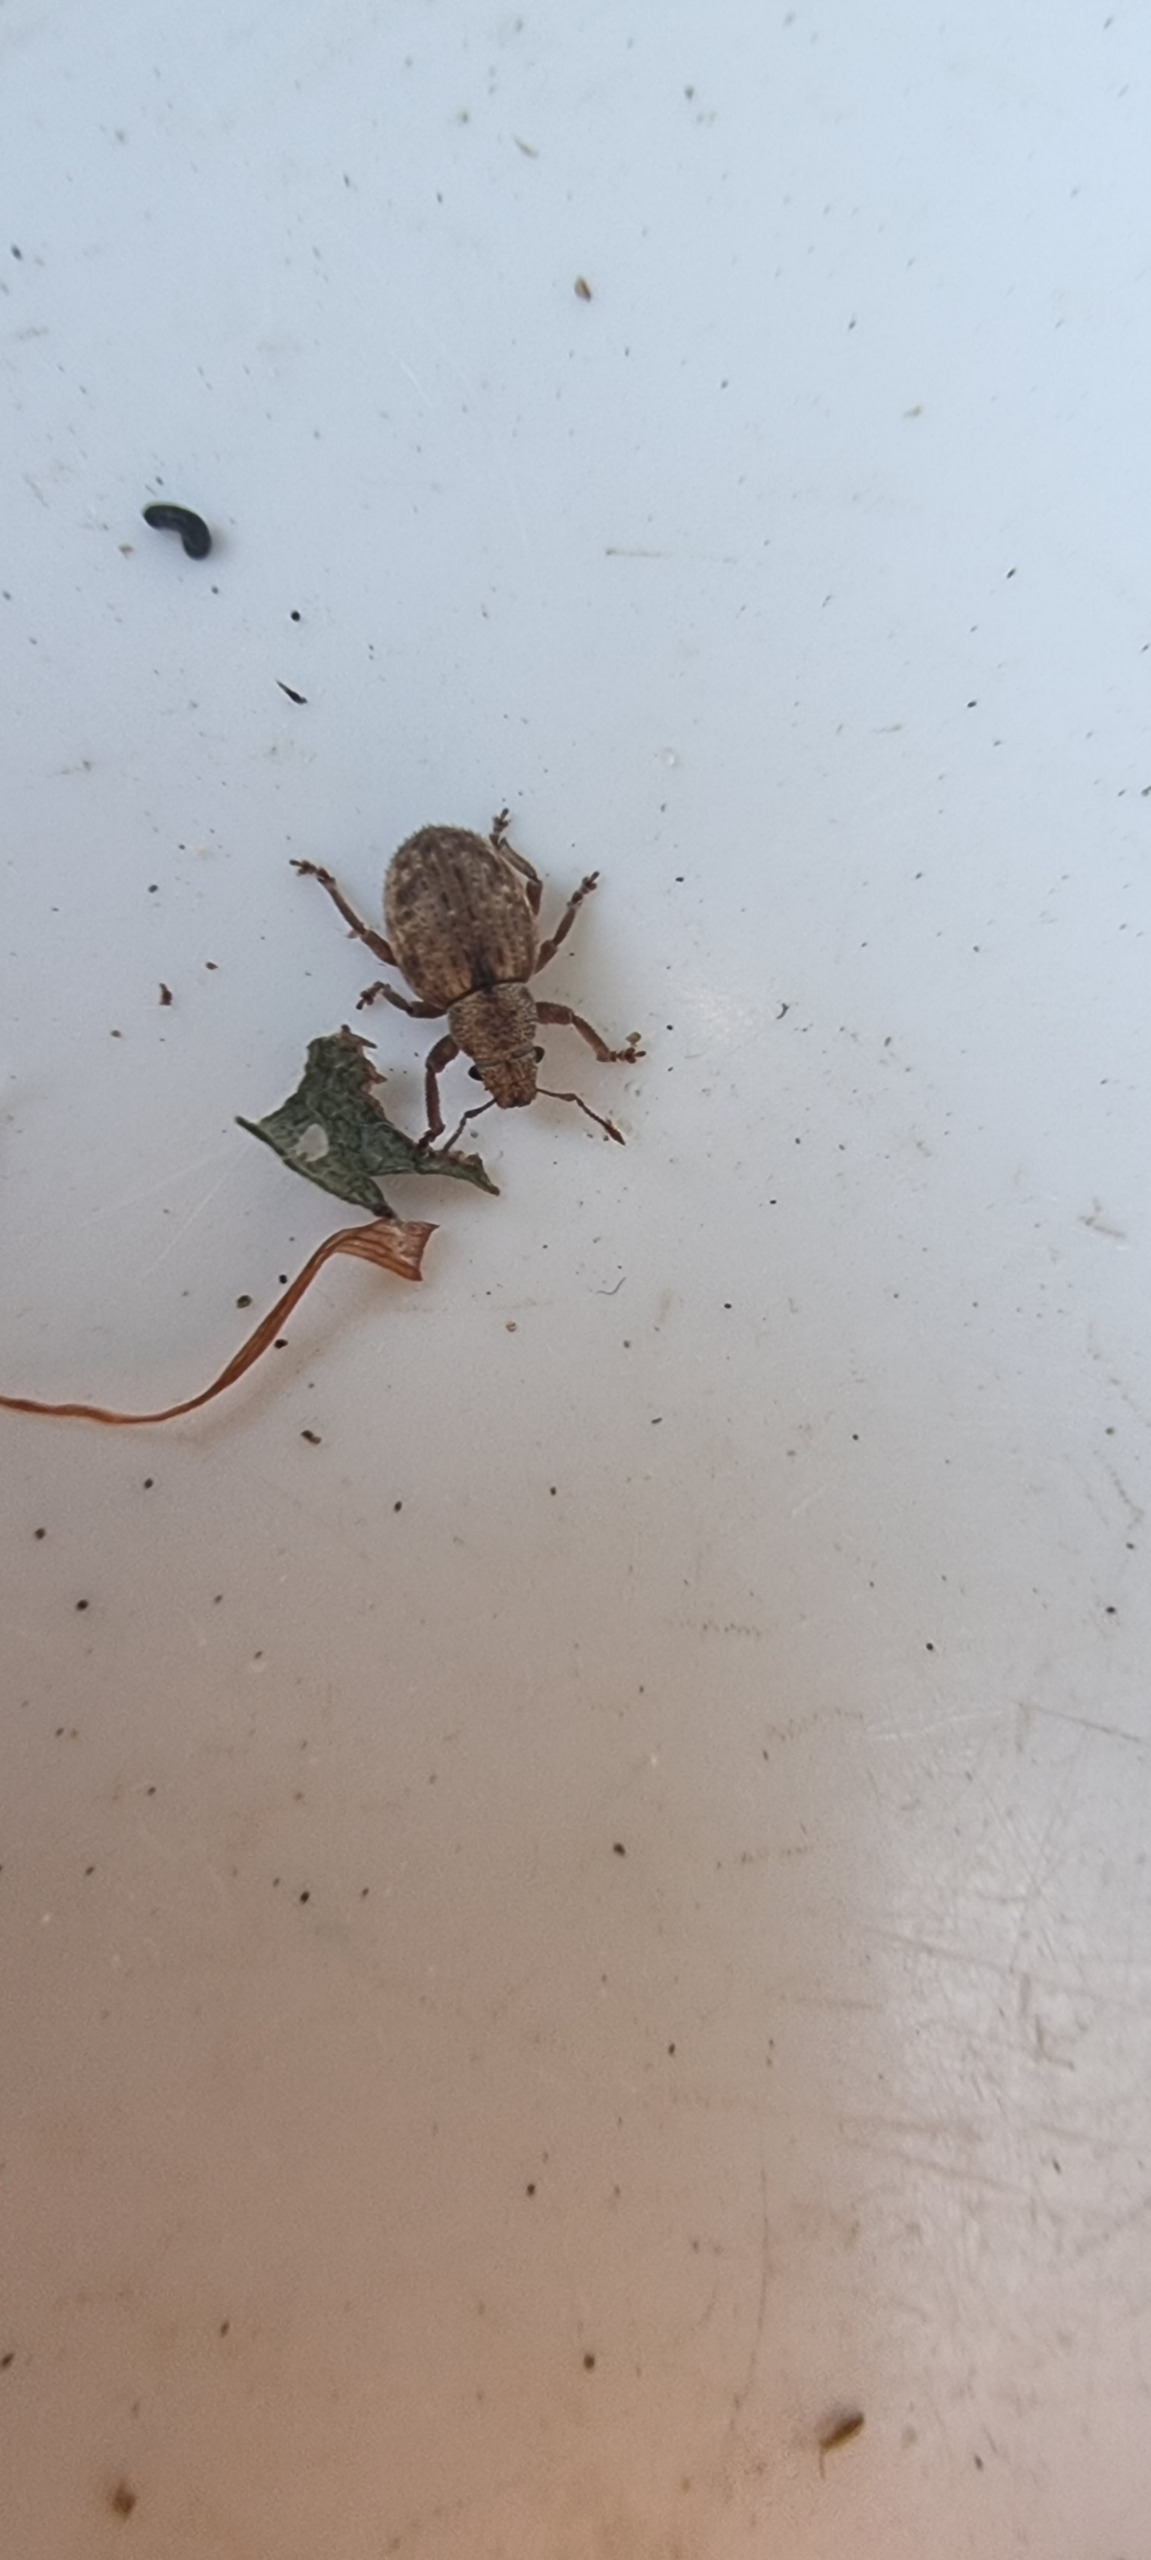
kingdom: Animalia
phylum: Arthropoda
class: Insecta
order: Coleoptera
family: Curculionidae
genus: Strophosoma
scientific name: Strophosoma capitatum
